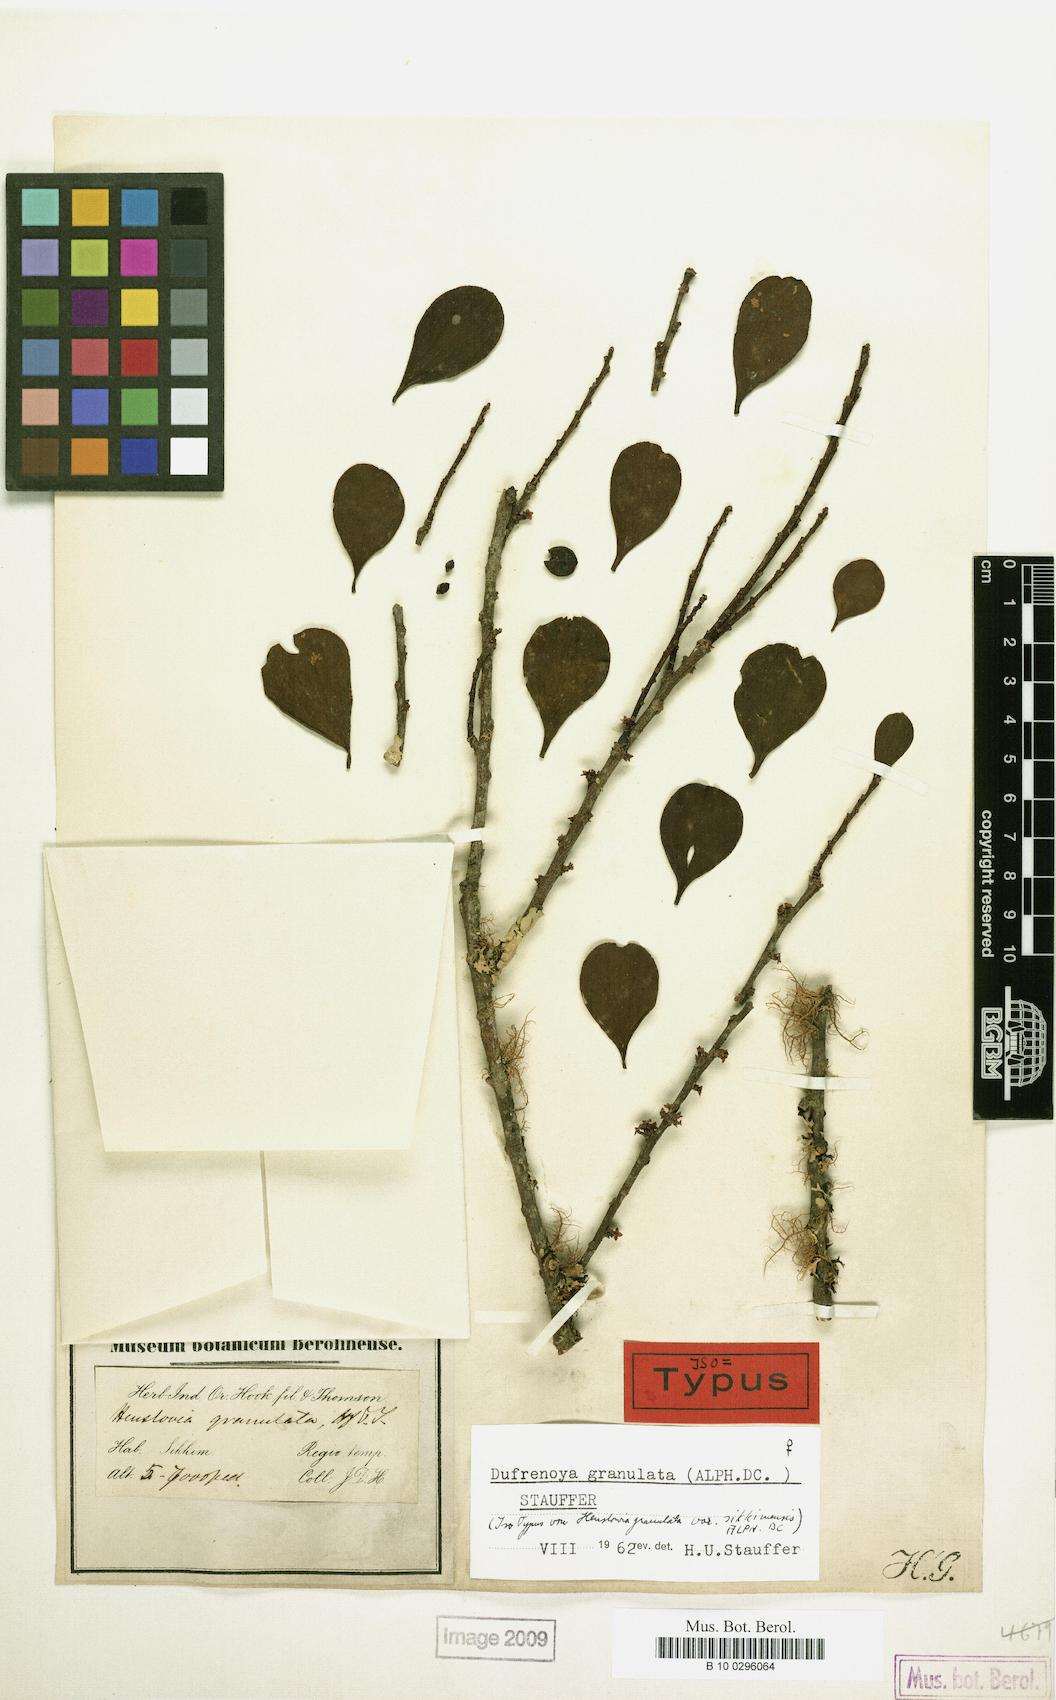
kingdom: Plantae
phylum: Tracheophyta
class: Magnoliopsida
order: Santalales
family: Amphorogynaceae
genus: Dendrotrophe
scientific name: Dendrotrophe granulata
